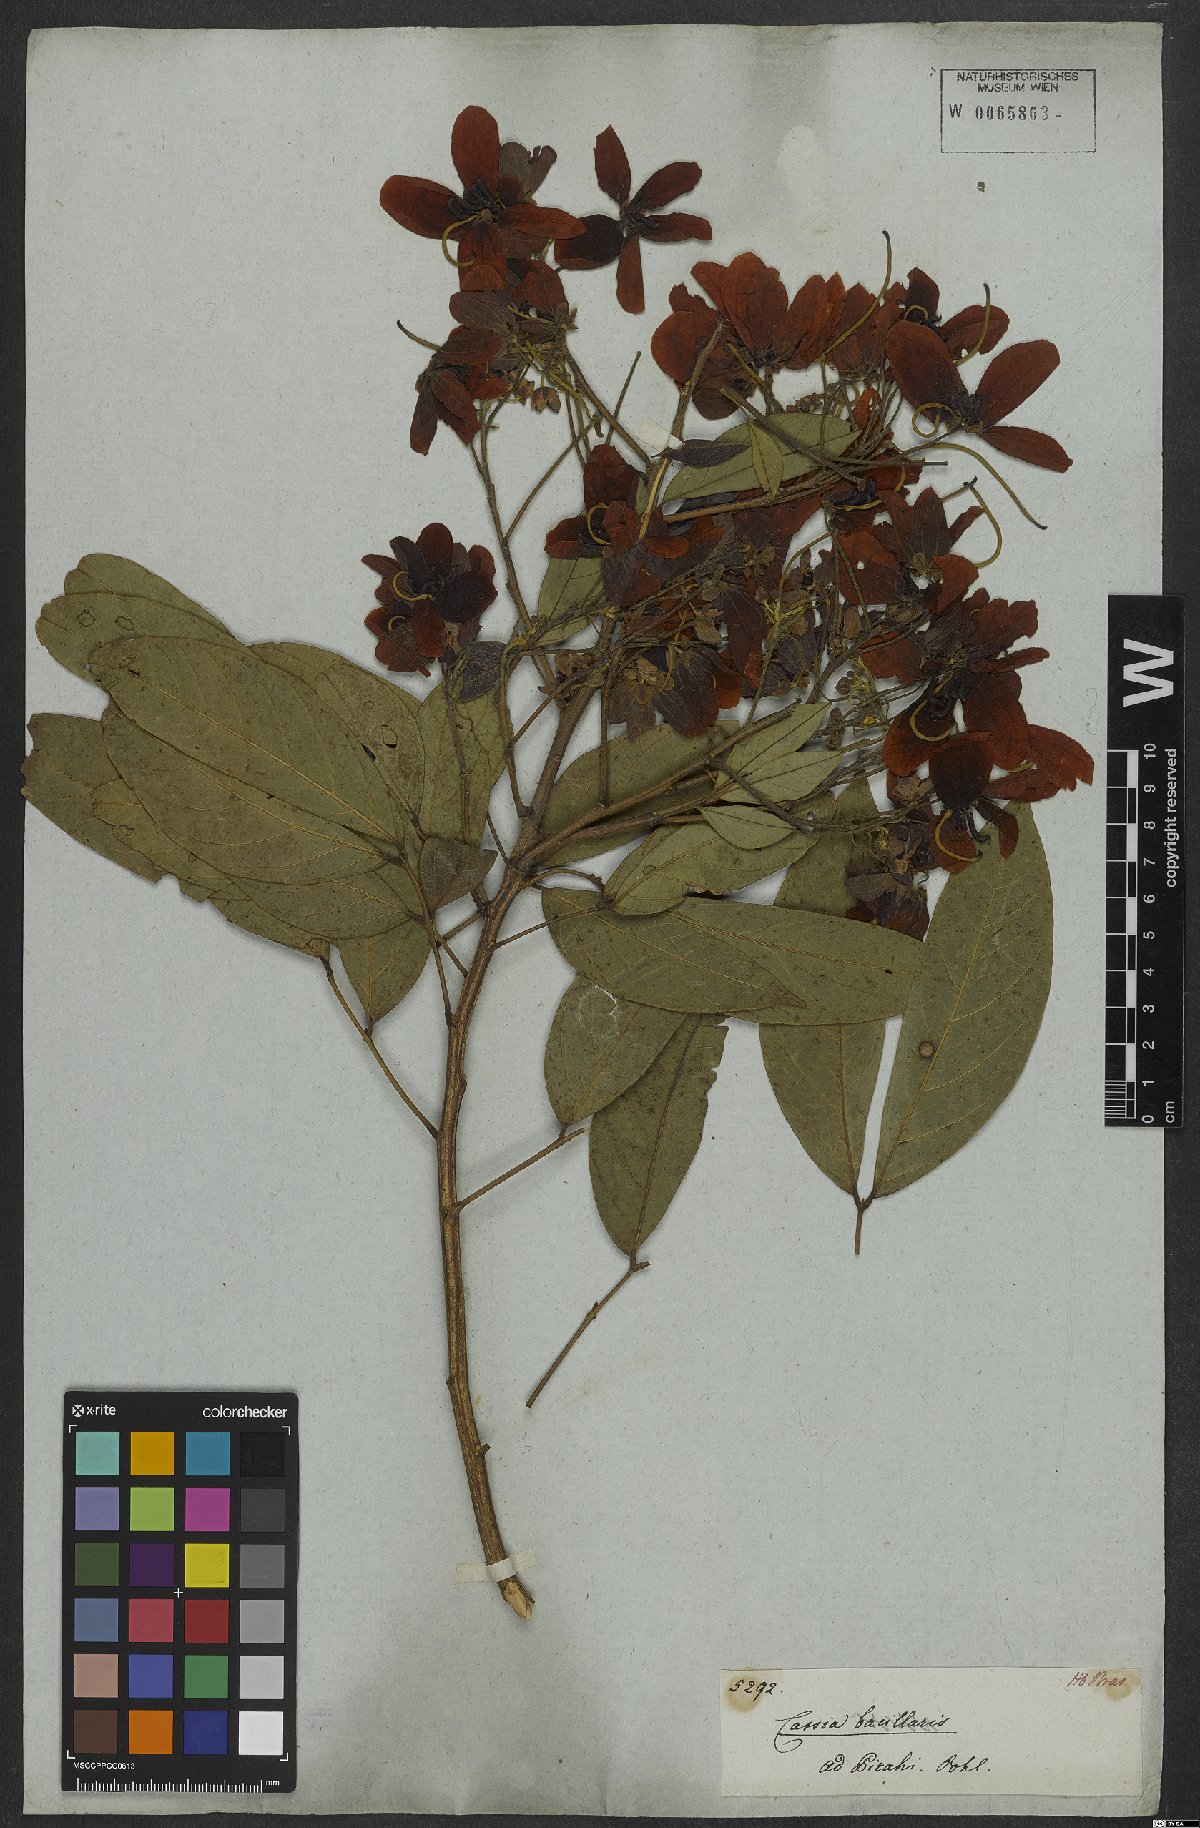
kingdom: Plantae
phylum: Tracheophyta
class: Magnoliopsida
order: Fabales
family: Fabaceae
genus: Senna
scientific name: Senna bacillaris
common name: West indian showertree
